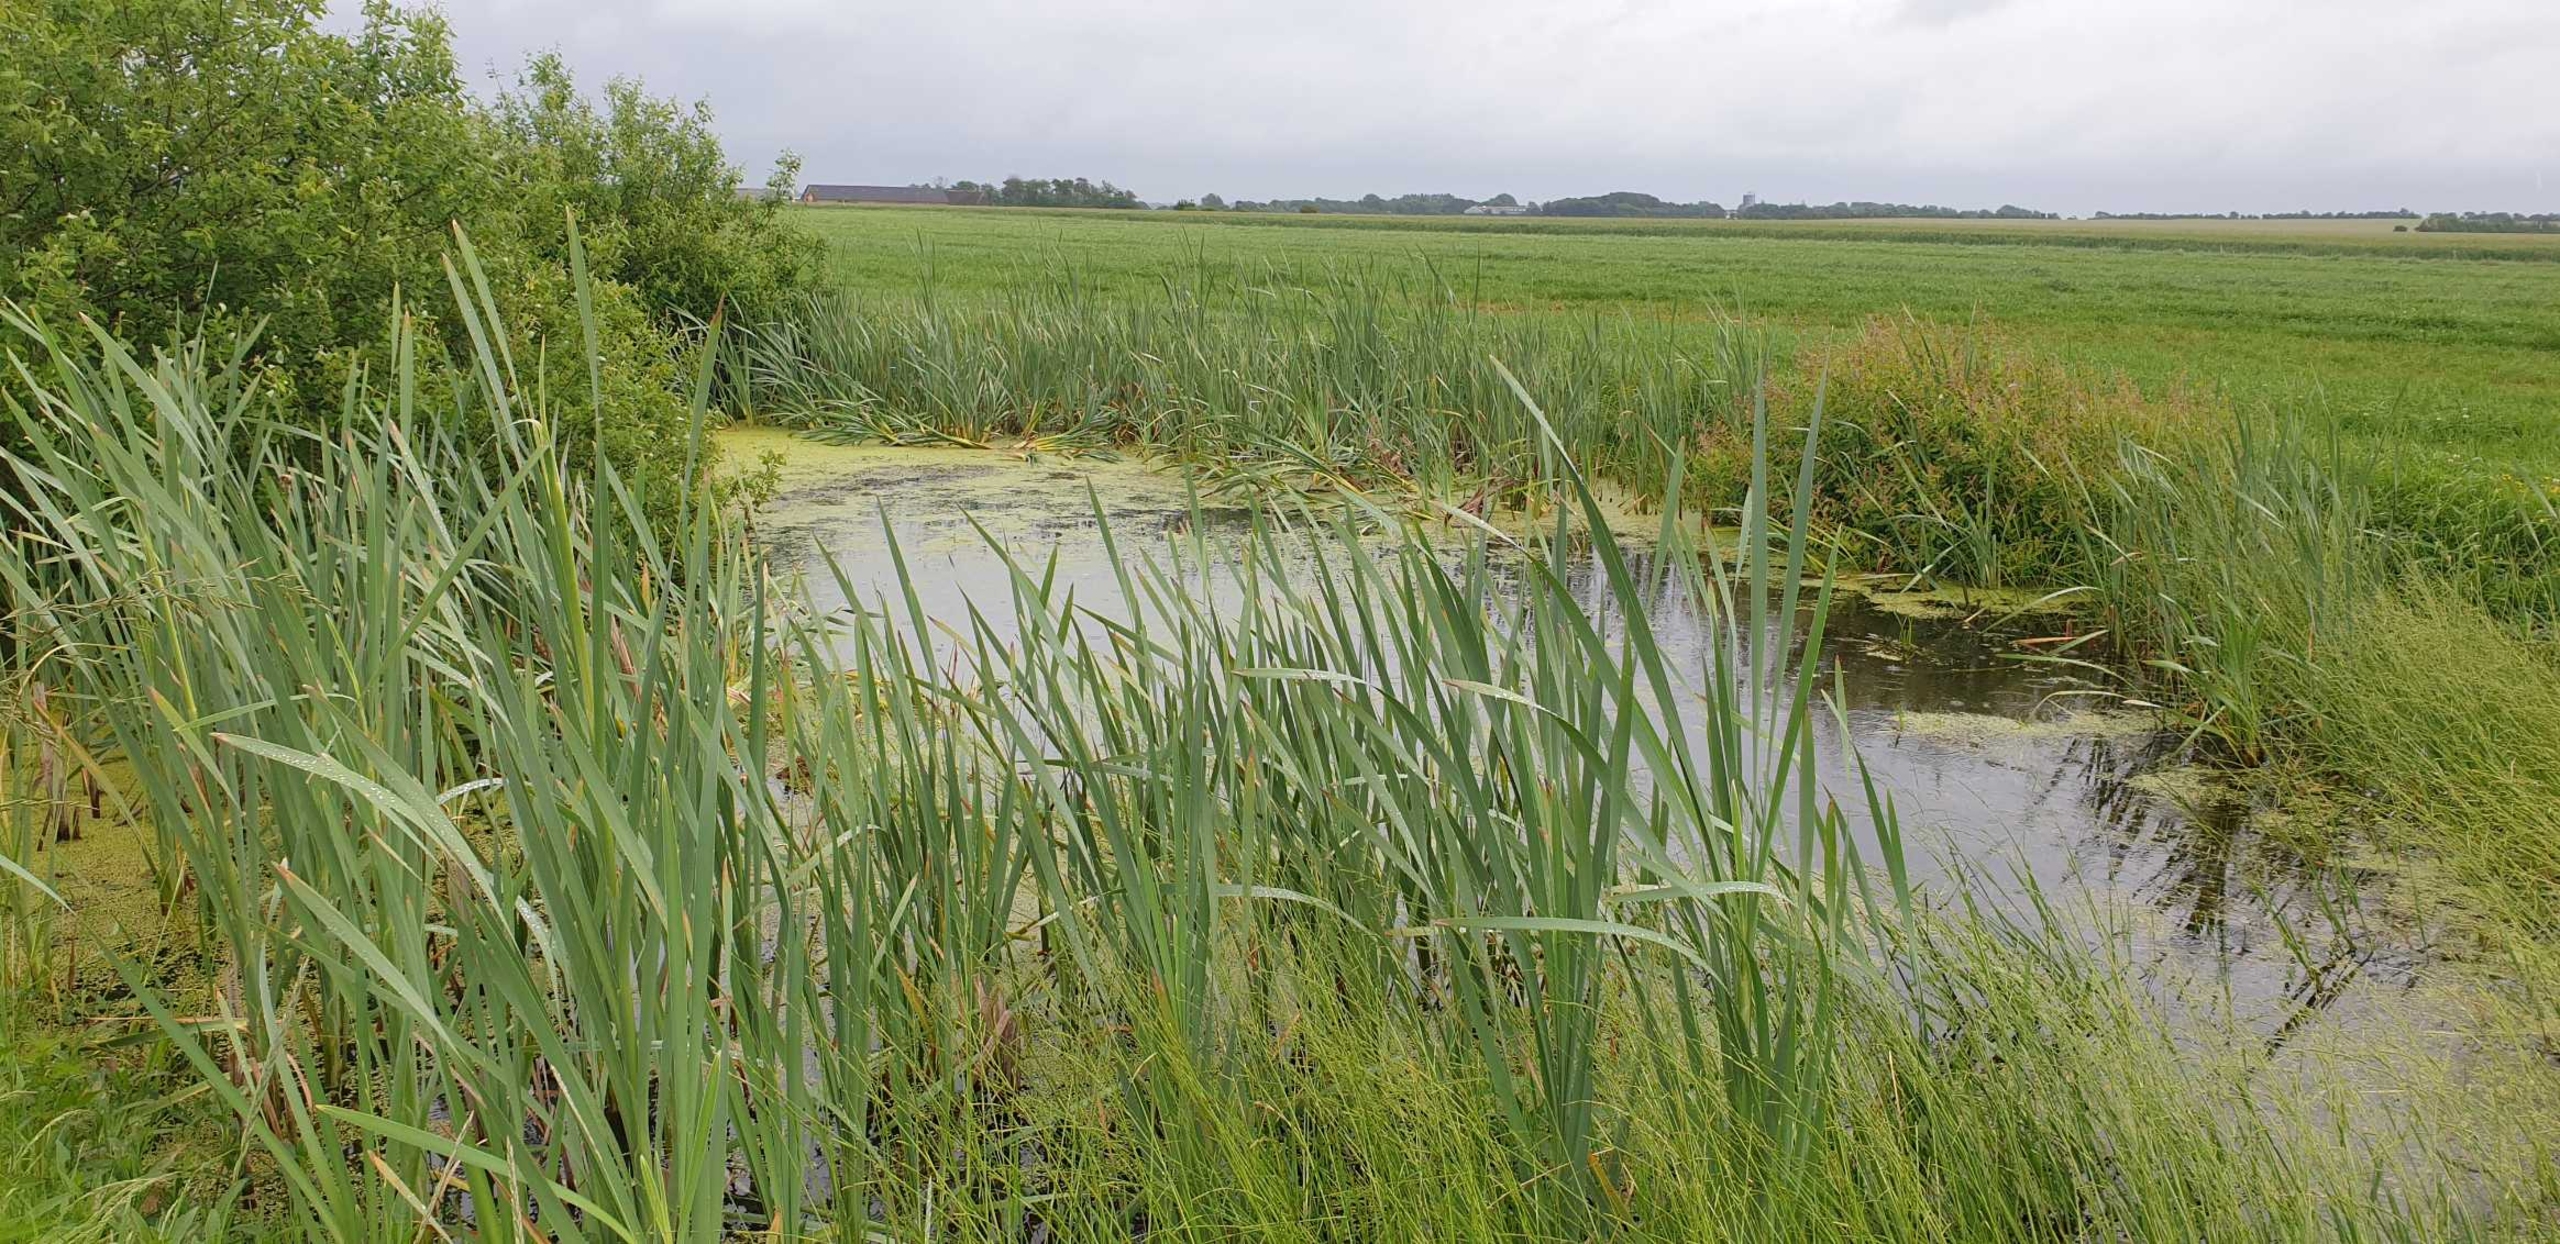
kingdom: Plantae
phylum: Tracheophyta
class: Liliopsida
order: Poales
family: Typhaceae
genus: Typha
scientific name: Typha latifolia
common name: Bredbladet dunhammer
